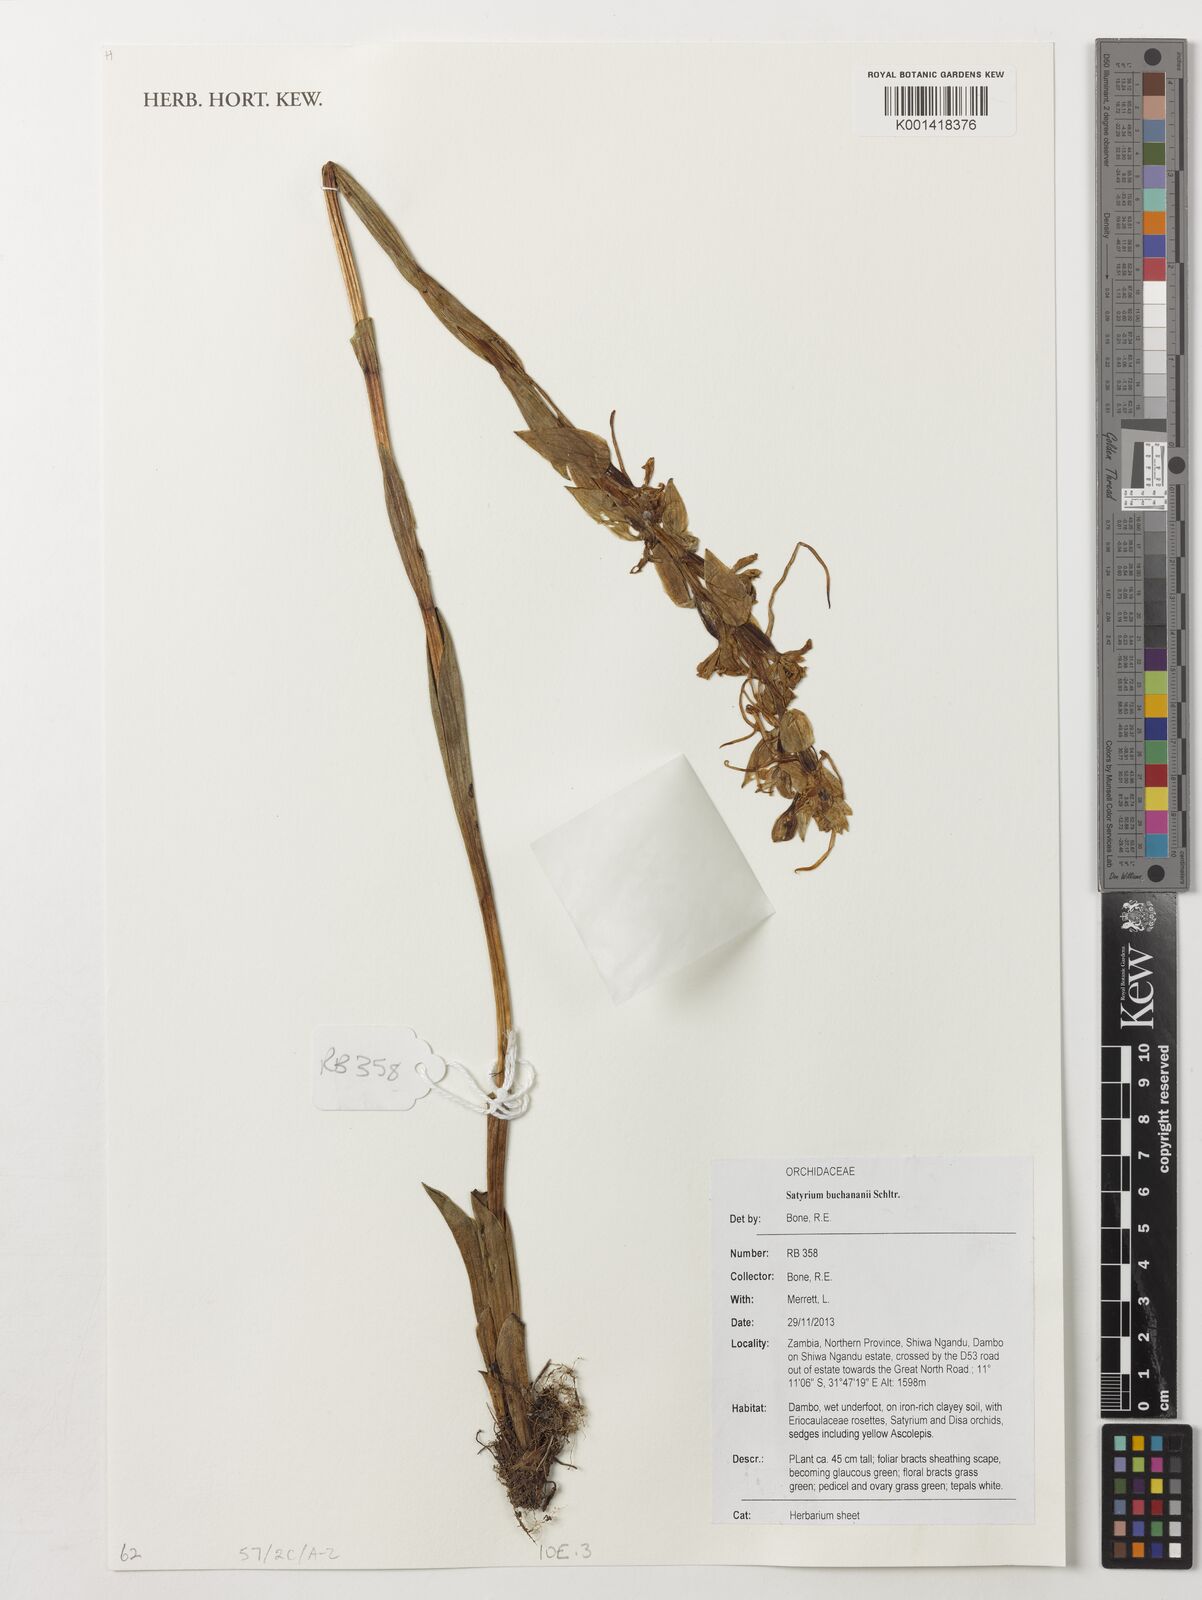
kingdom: Plantae
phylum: Tracheophyta
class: Liliopsida
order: Asparagales
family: Orchidaceae
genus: Satyrium
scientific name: Satyrium buchananii
